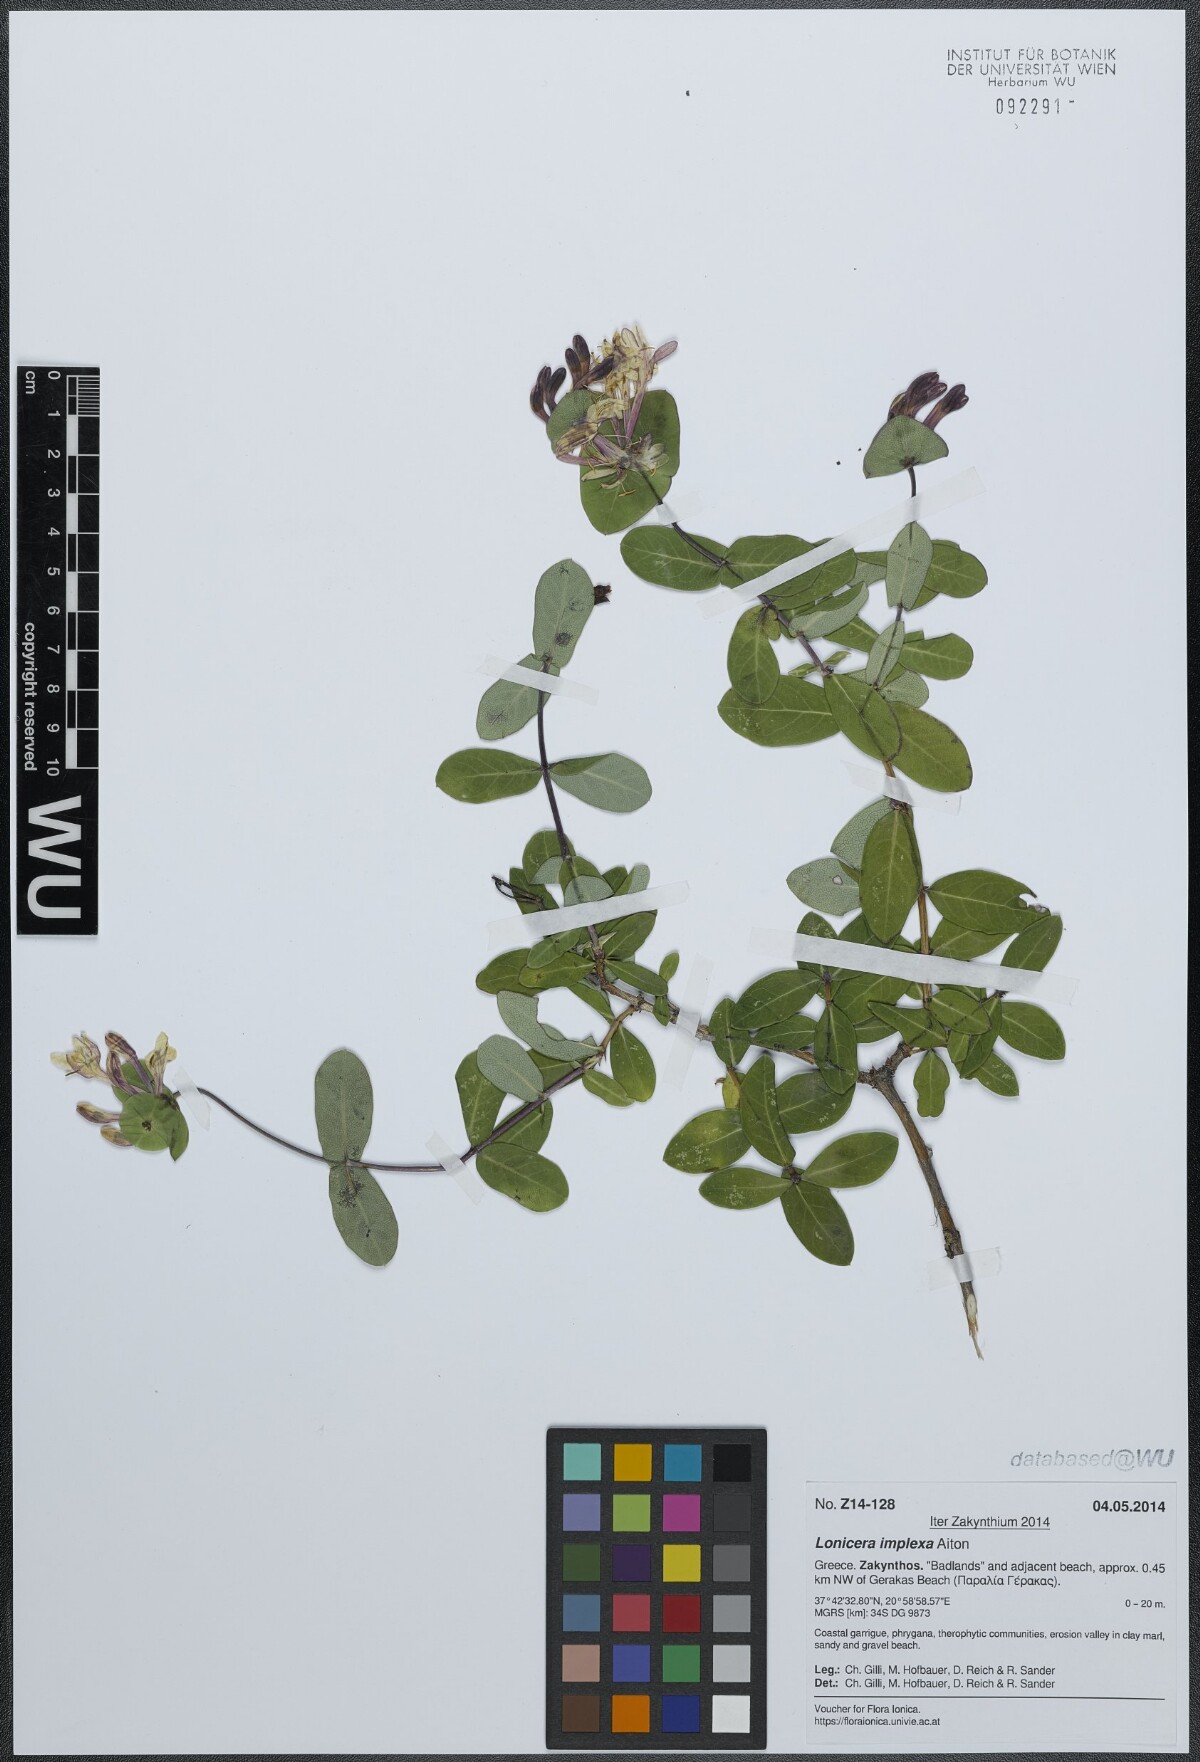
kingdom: Plantae
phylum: Tracheophyta
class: Magnoliopsida
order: Dipsacales
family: Caprifoliaceae
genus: Lonicera
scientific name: Lonicera implexa
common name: Minorca honeysuckle
